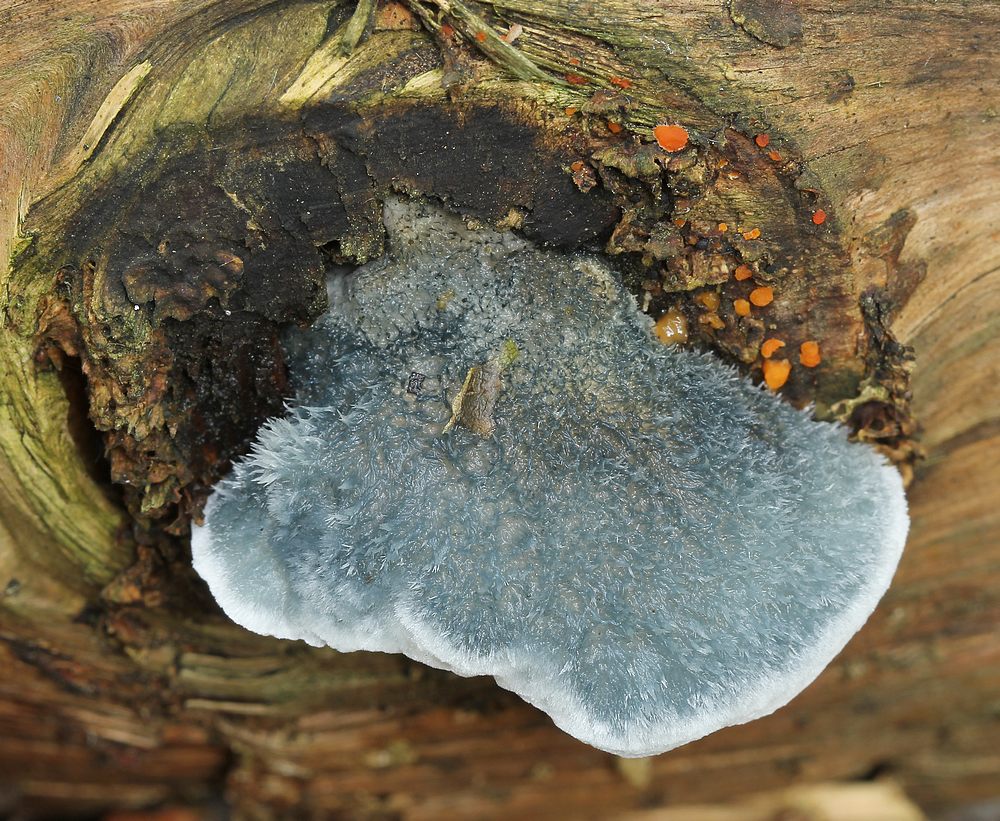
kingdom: Fungi
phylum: Basidiomycota
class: Agaricomycetes
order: Polyporales
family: Polyporaceae
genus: Cyanosporus
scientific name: Cyanosporus caesius
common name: blålig kødporesvamp
